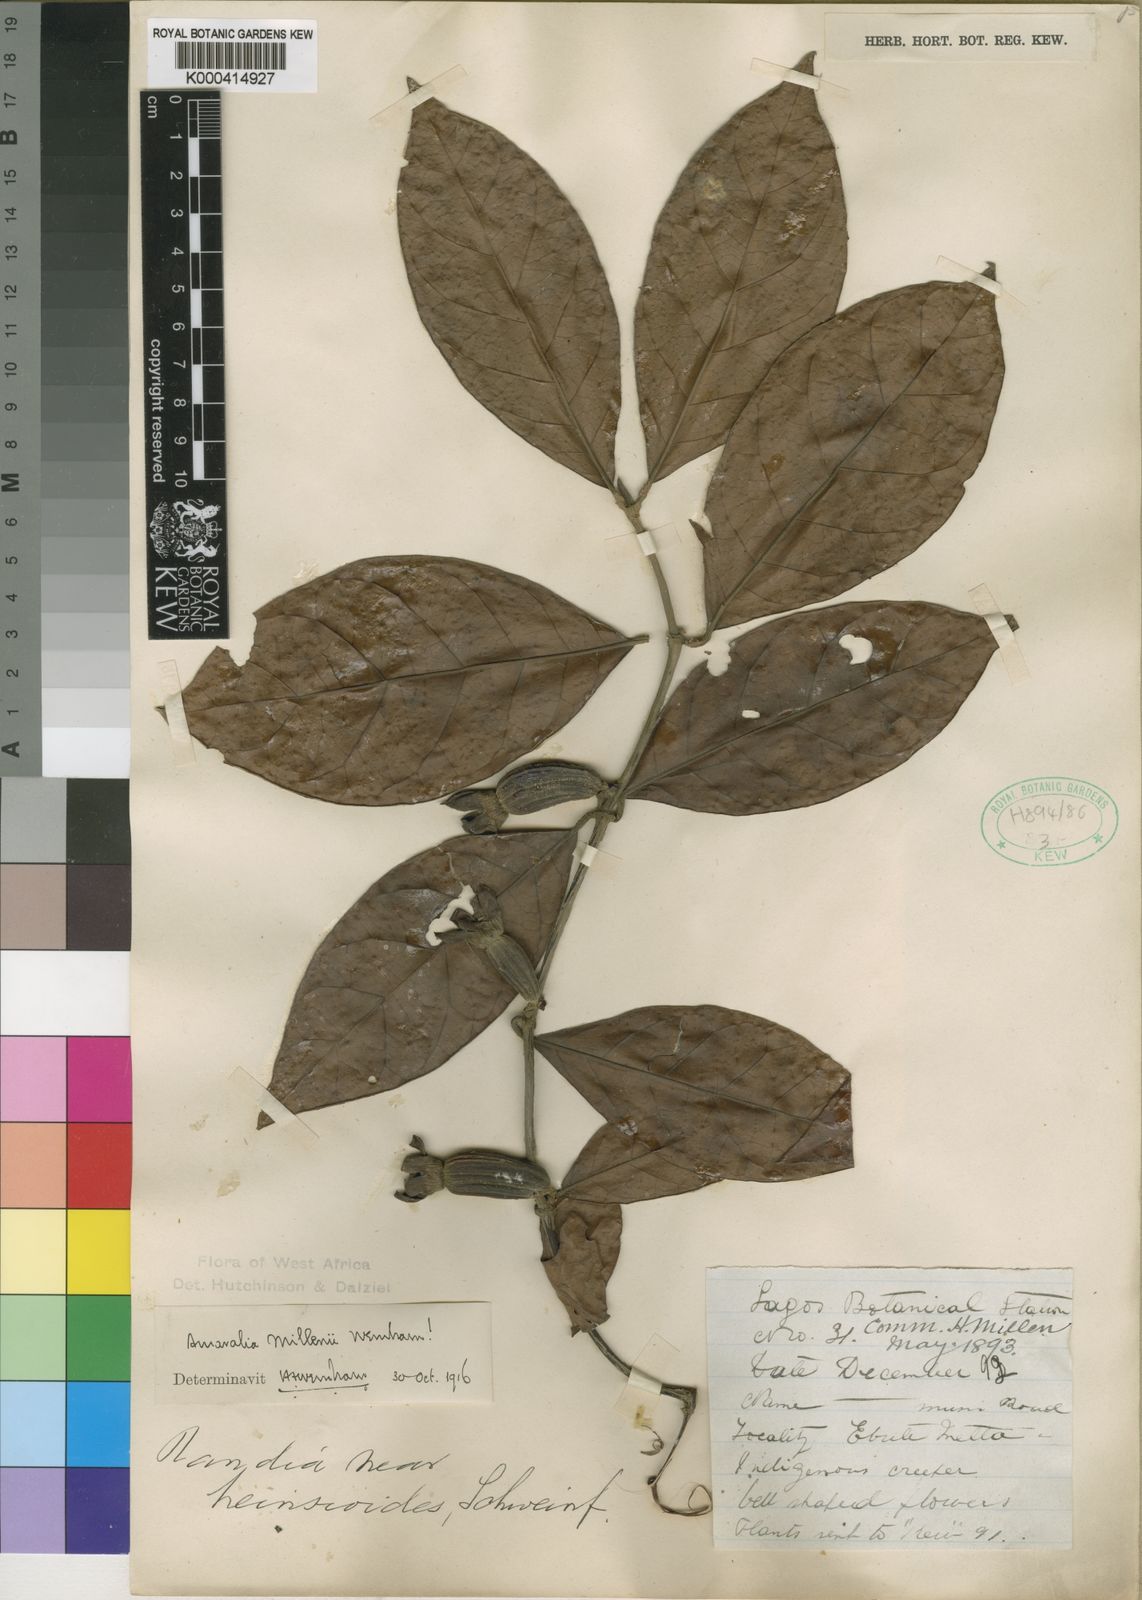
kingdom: Plantae
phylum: Tracheophyta
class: Magnoliopsida
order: Gentianales
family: Rubiaceae
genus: Sherbournia
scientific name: Sherbournia millenii
